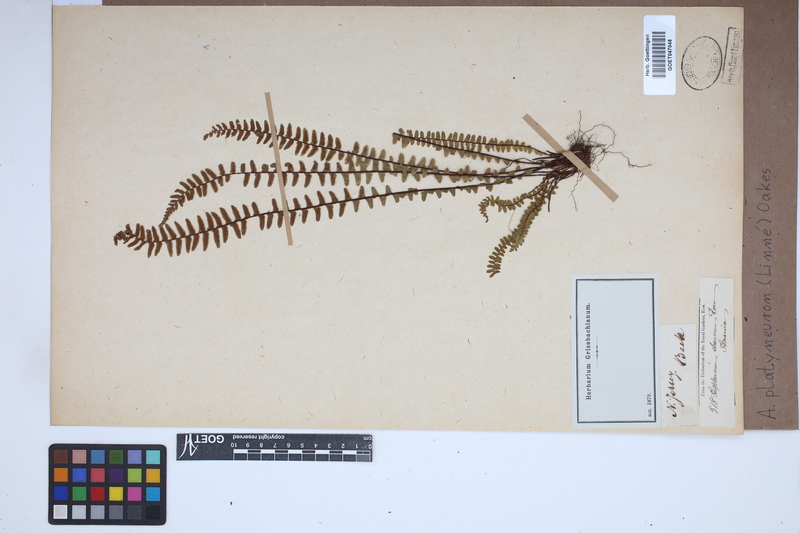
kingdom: Plantae
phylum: Tracheophyta
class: Polypodiopsida
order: Polypodiales
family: Aspleniaceae
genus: Asplenium
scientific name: Asplenium platyneuron
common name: Ebony spleenwort
